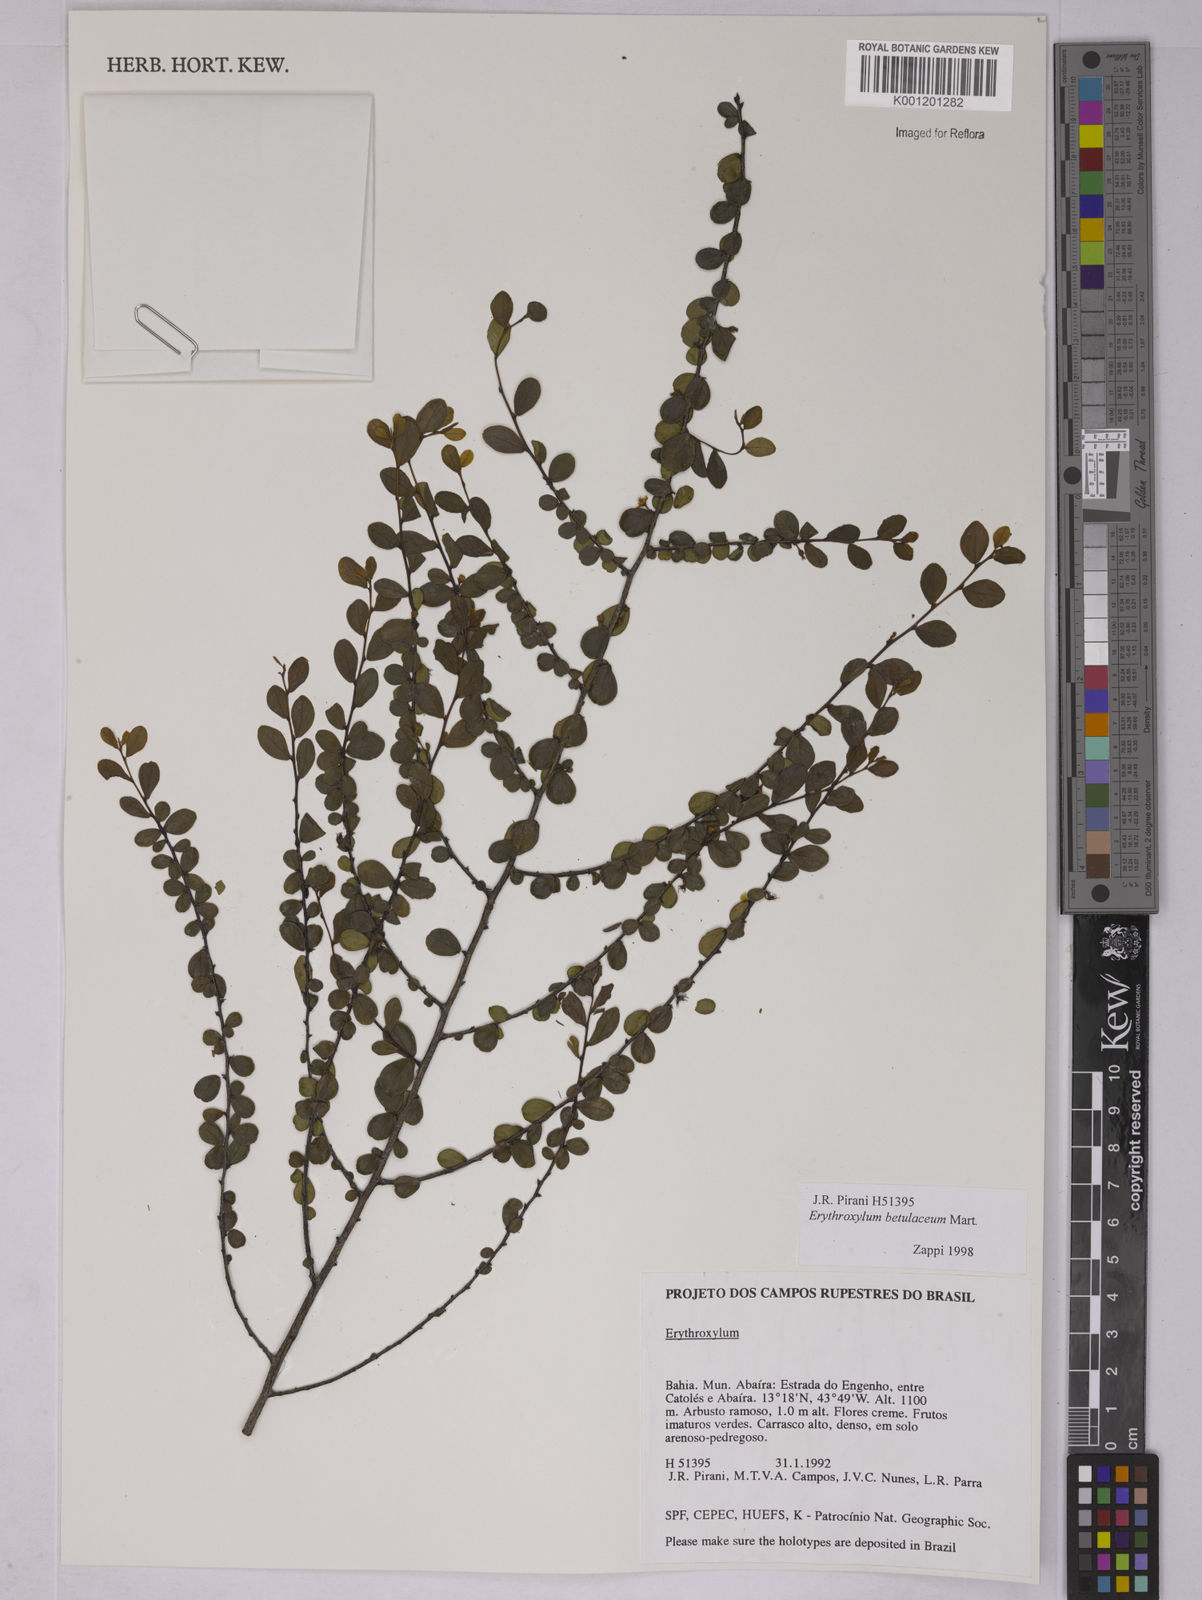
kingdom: Plantae
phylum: Tracheophyta
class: Magnoliopsida
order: Malpighiales
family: Erythroxylaceae
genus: Erythroxylum
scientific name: Erythroxylum betulaceum
